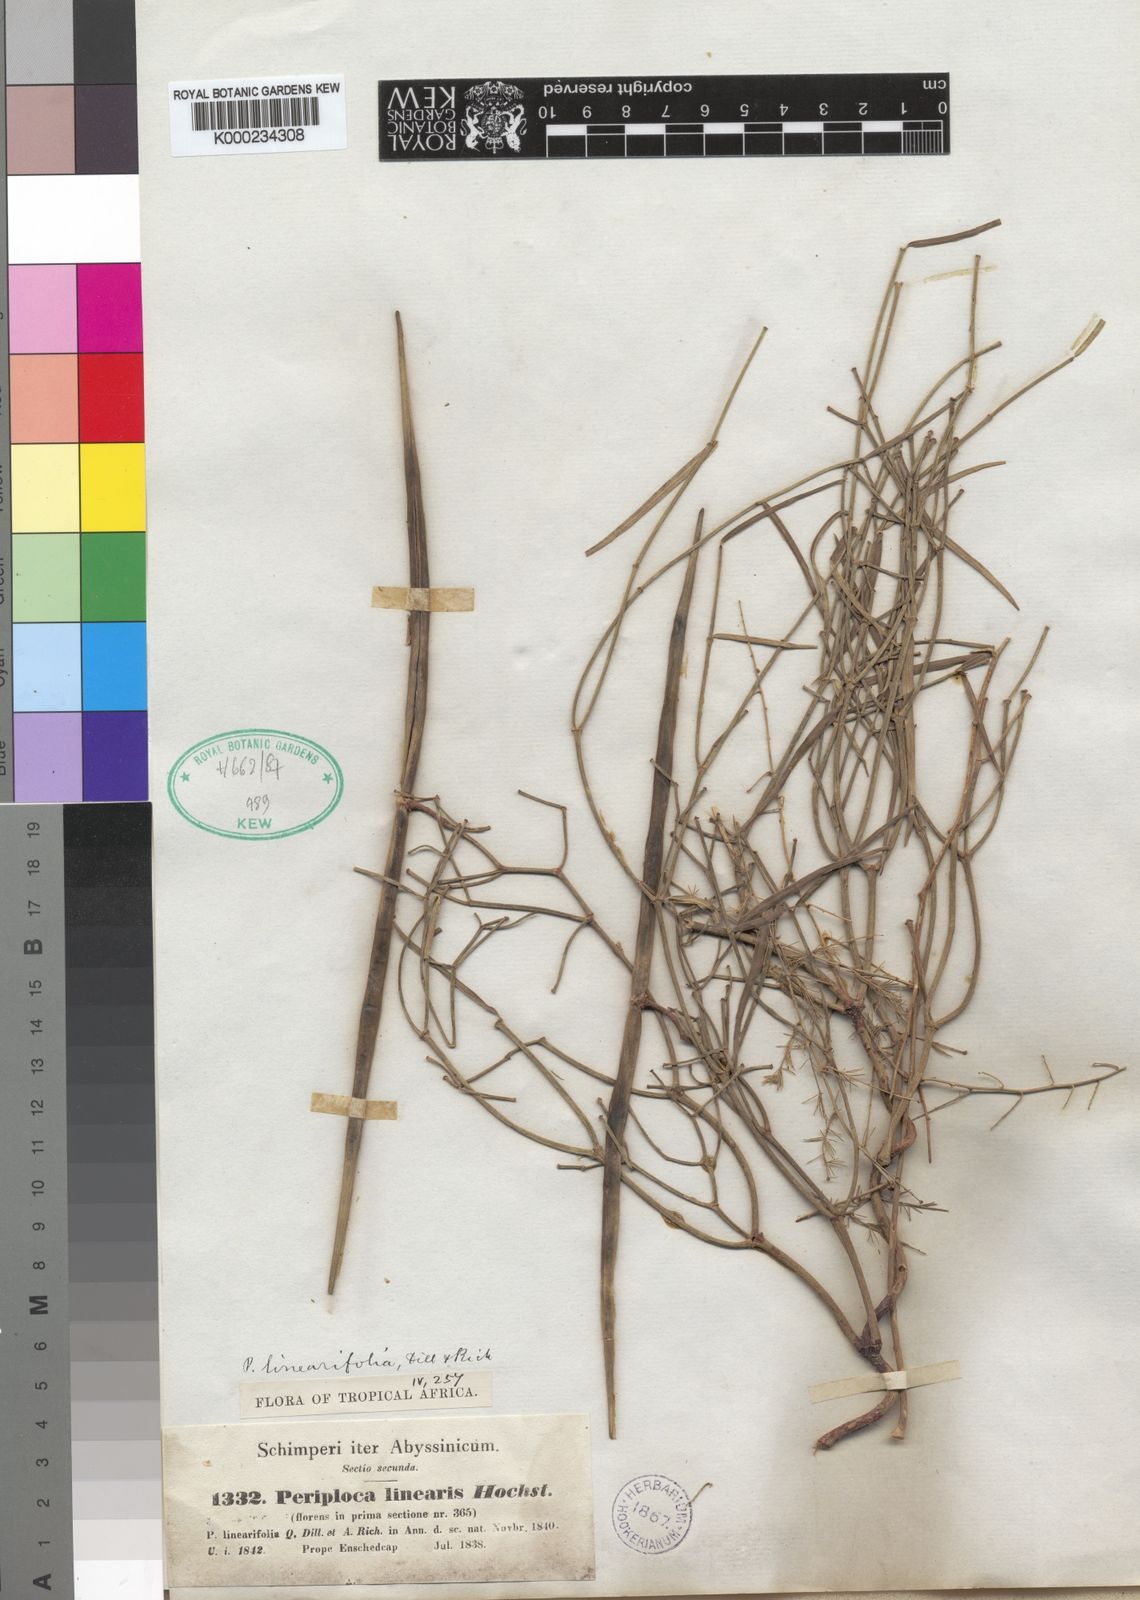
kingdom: Plantae
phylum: Tracheophyta
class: Magnoliopsida
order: Gentianales
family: Apocynaceae
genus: Periploca
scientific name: Periploca linearifolia
